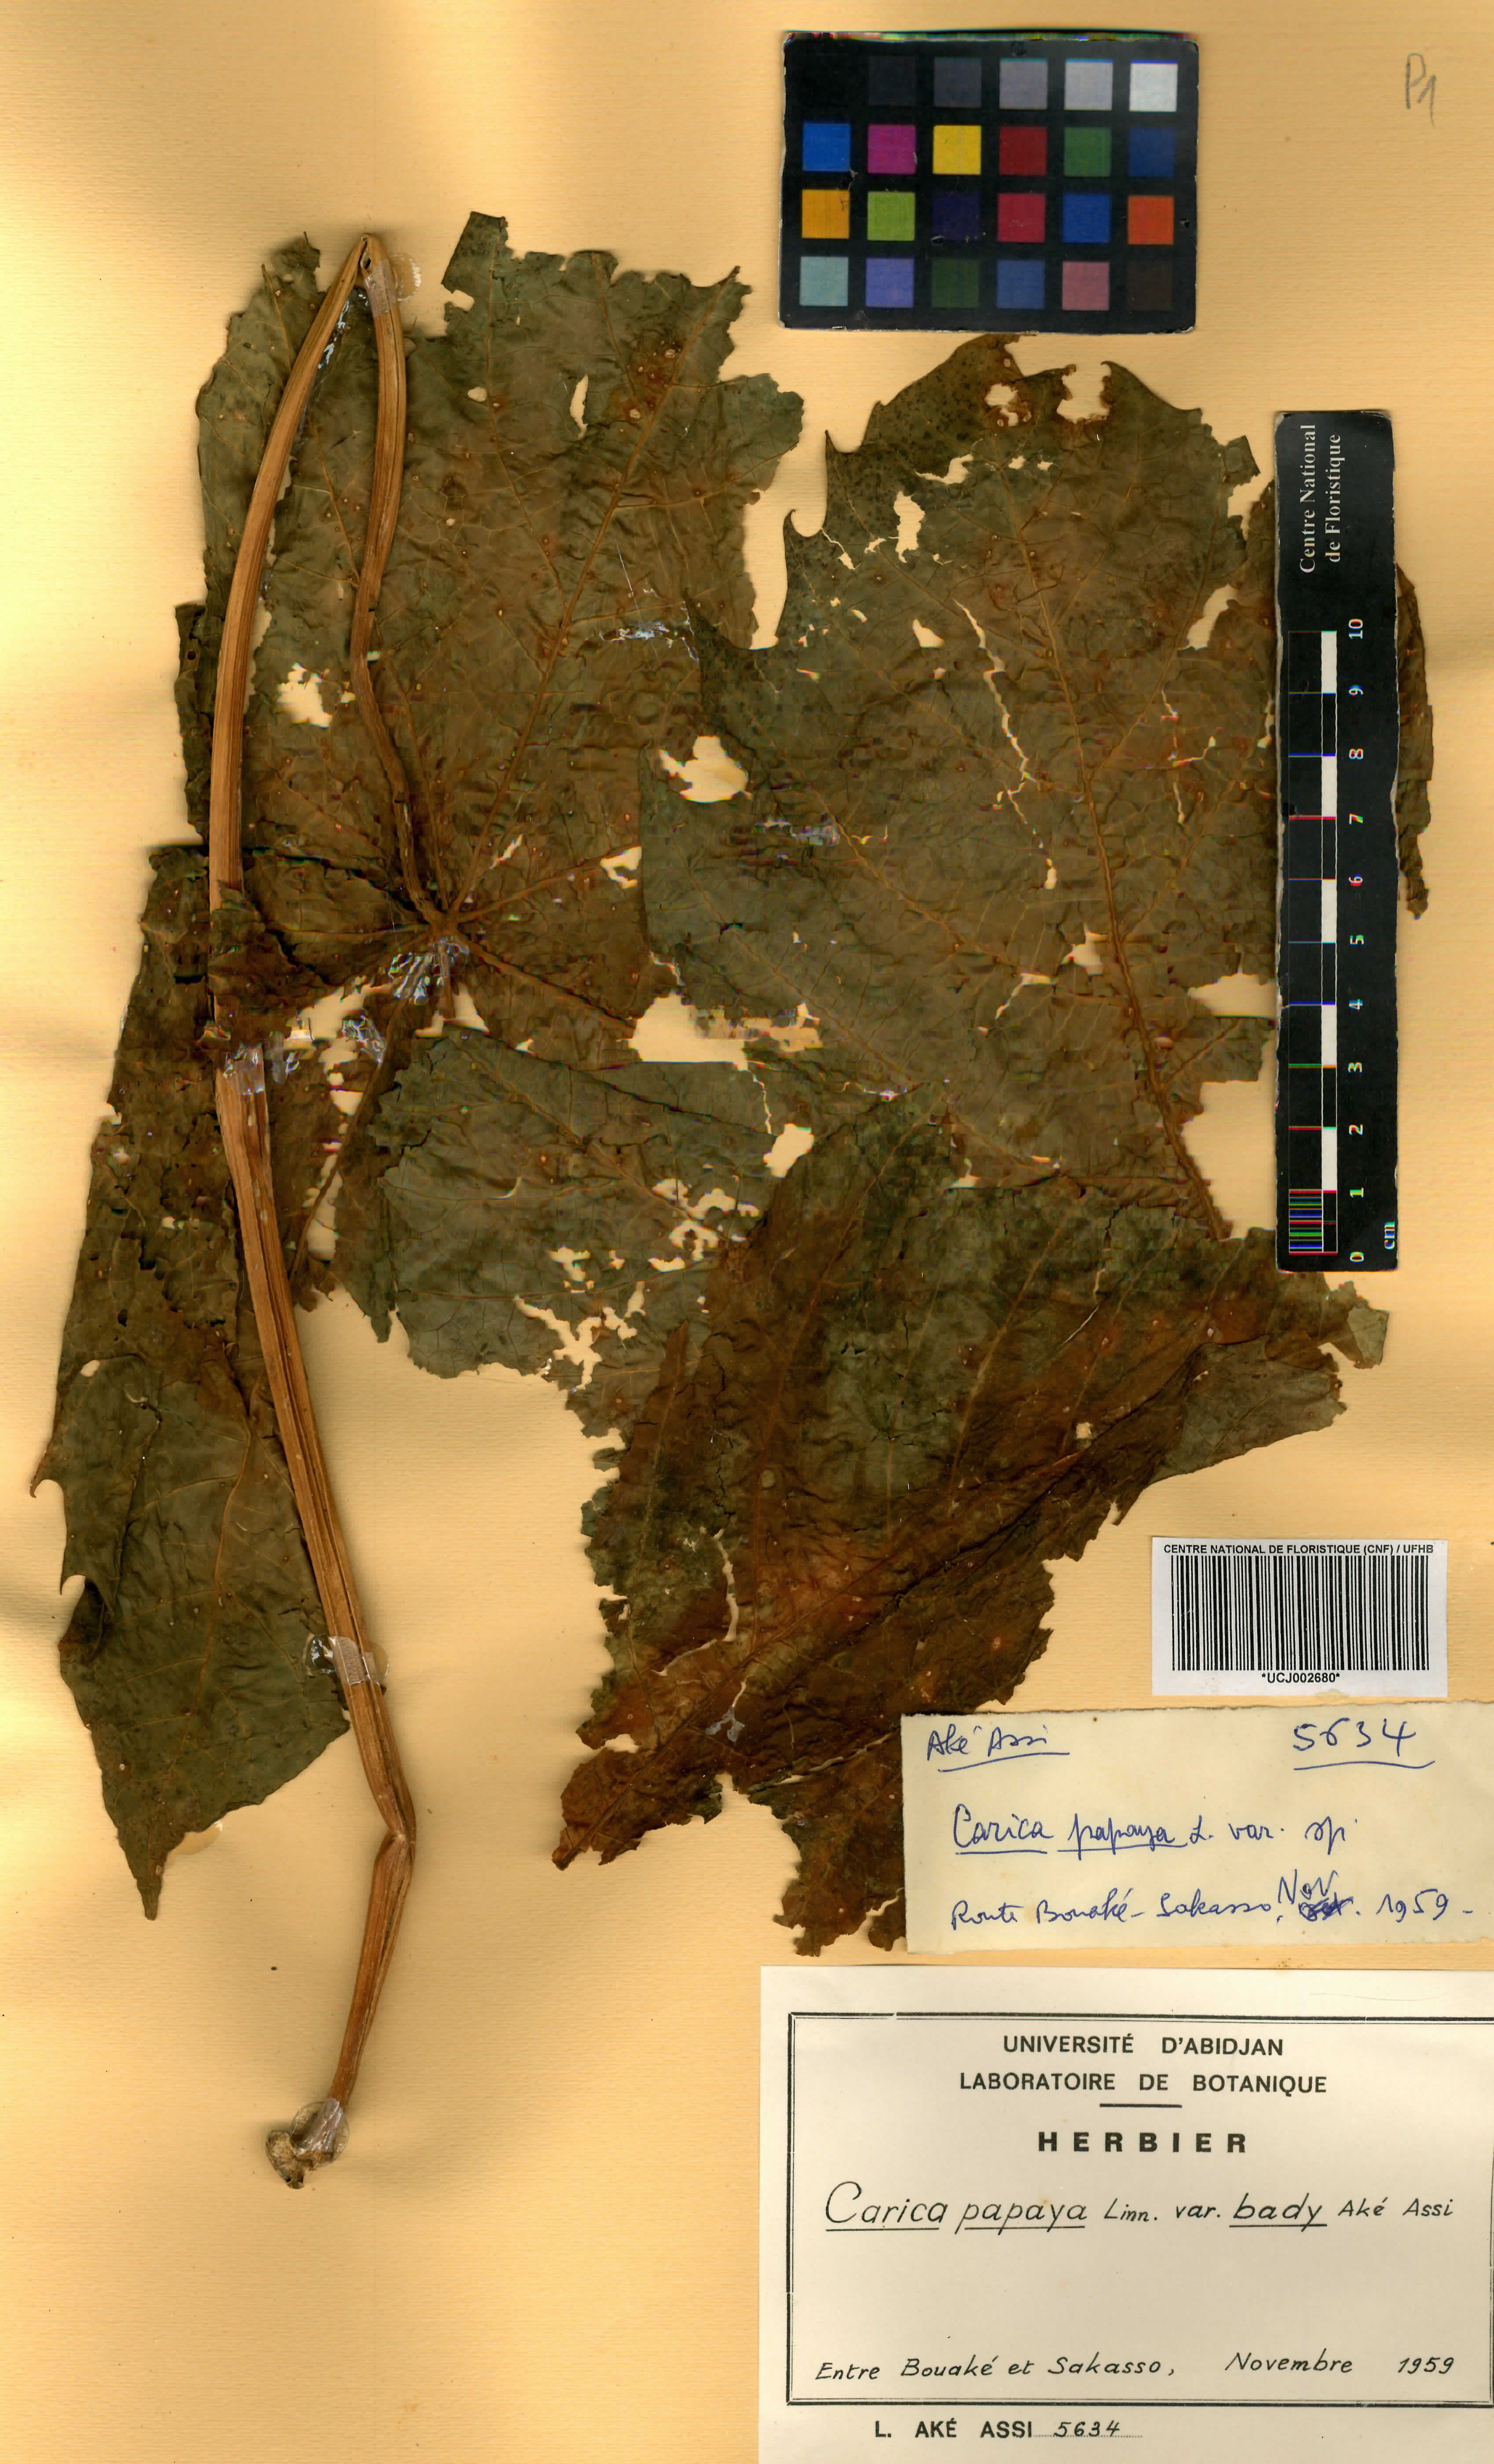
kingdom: Plantae
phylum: Tracheophyta
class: Magnoliopsida
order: Brassicales
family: Caricaceae
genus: Carica
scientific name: Carica papaya
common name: Papaya
